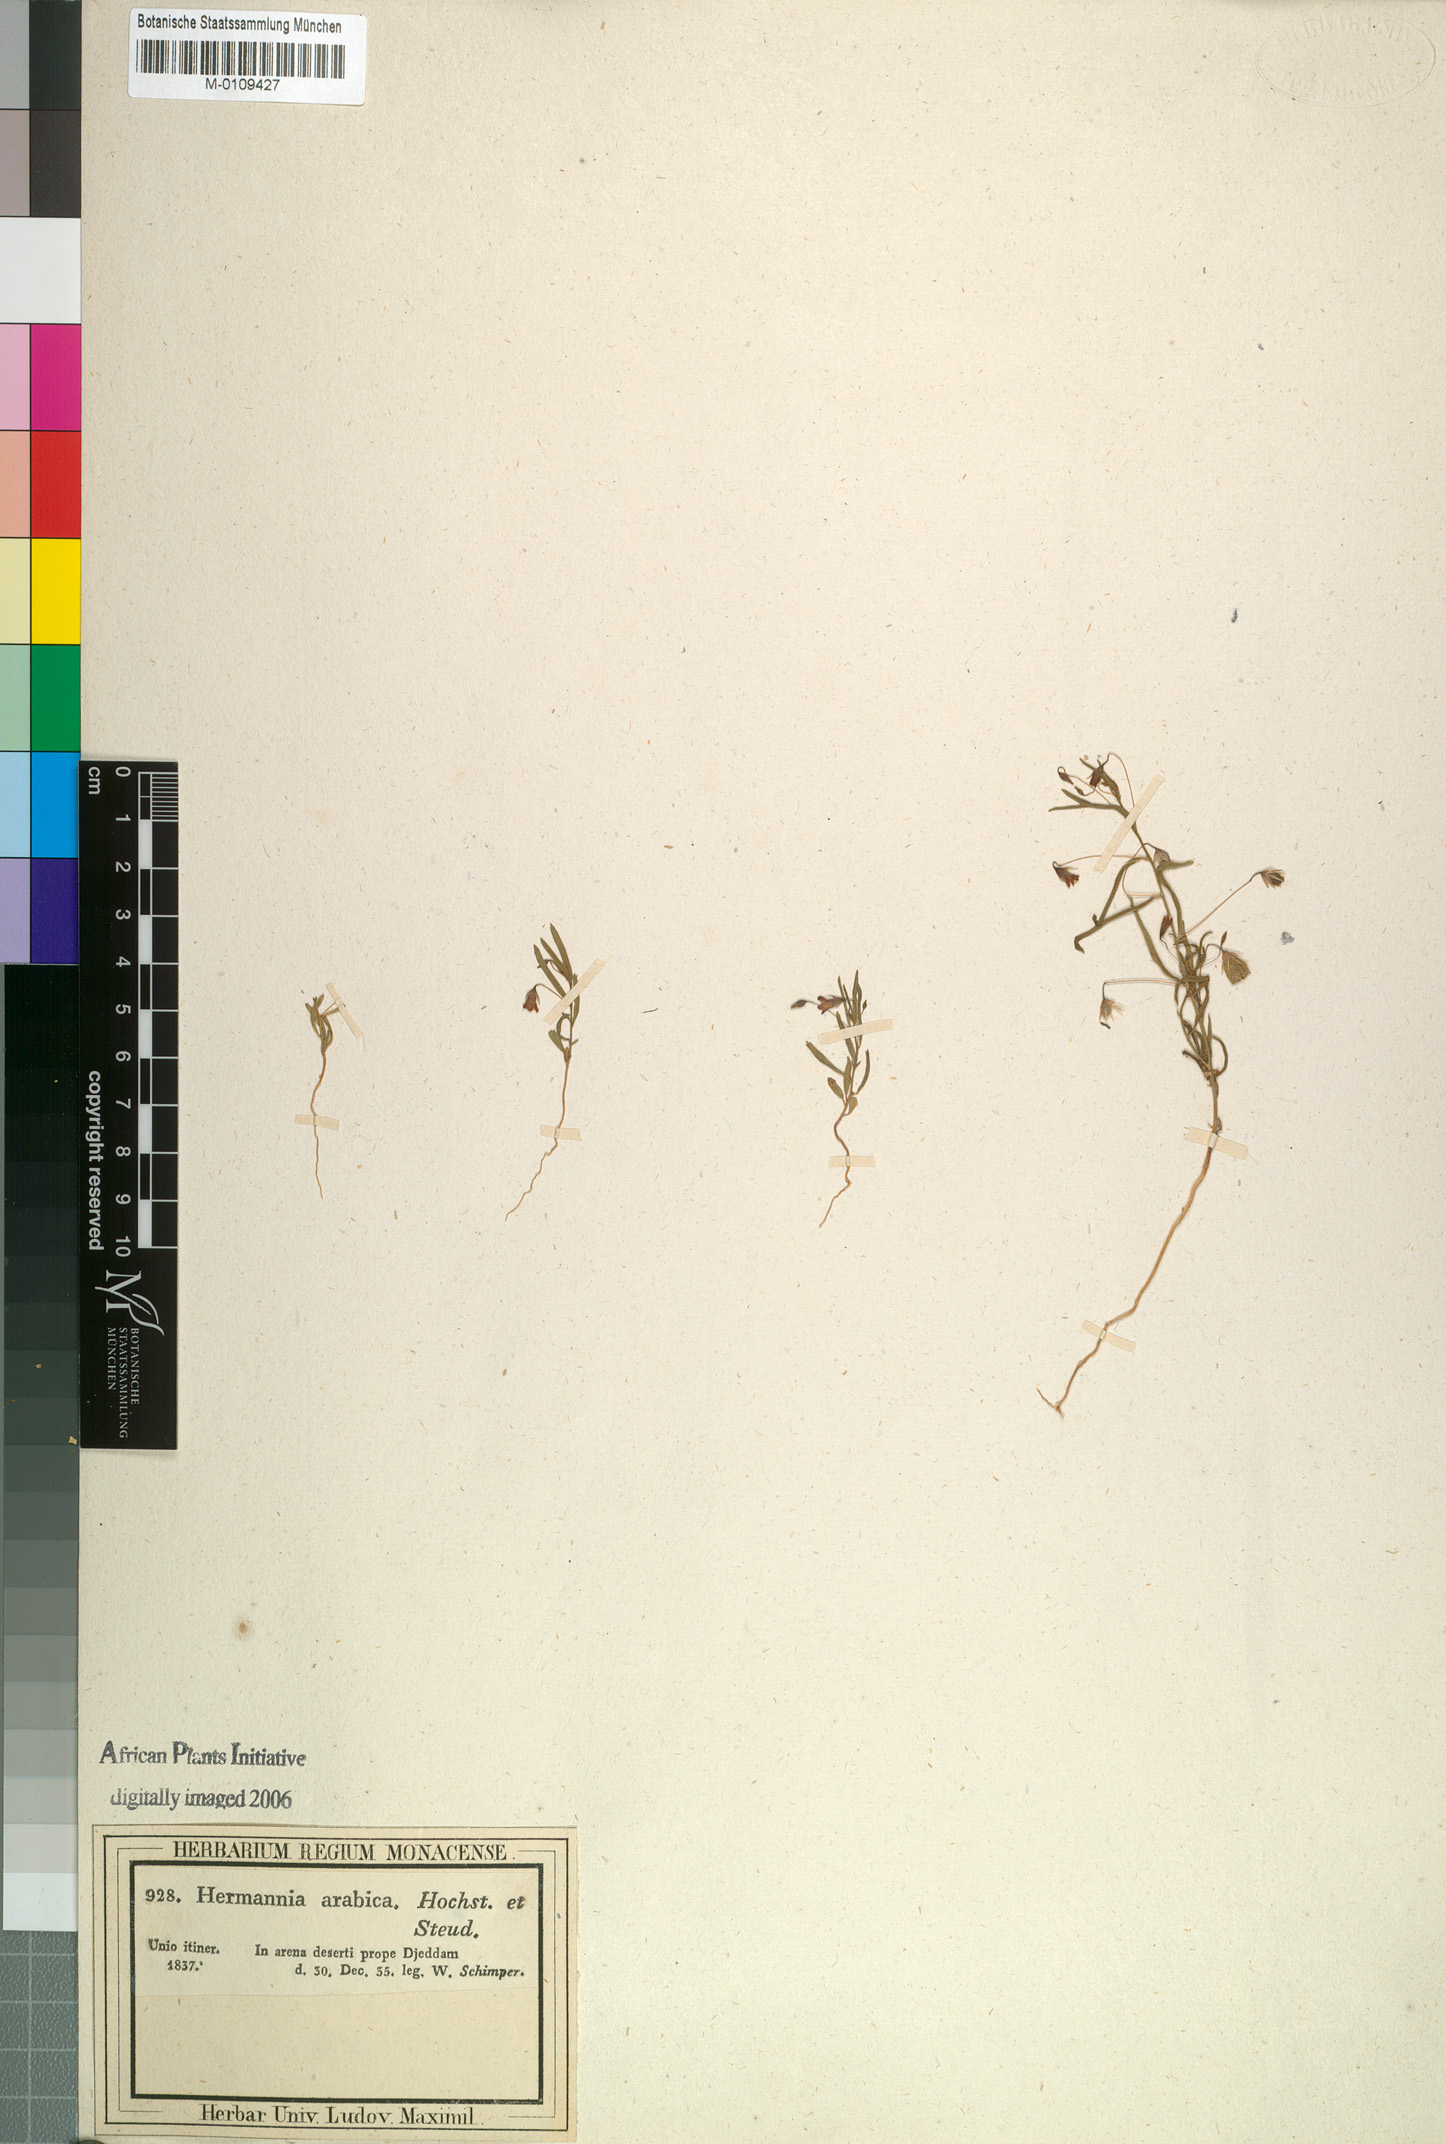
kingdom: Plantae
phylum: Tracheophyta
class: Magnoliopsida
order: Malvales
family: Malvaceae
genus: Hermannia
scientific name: Hermannia modesta
